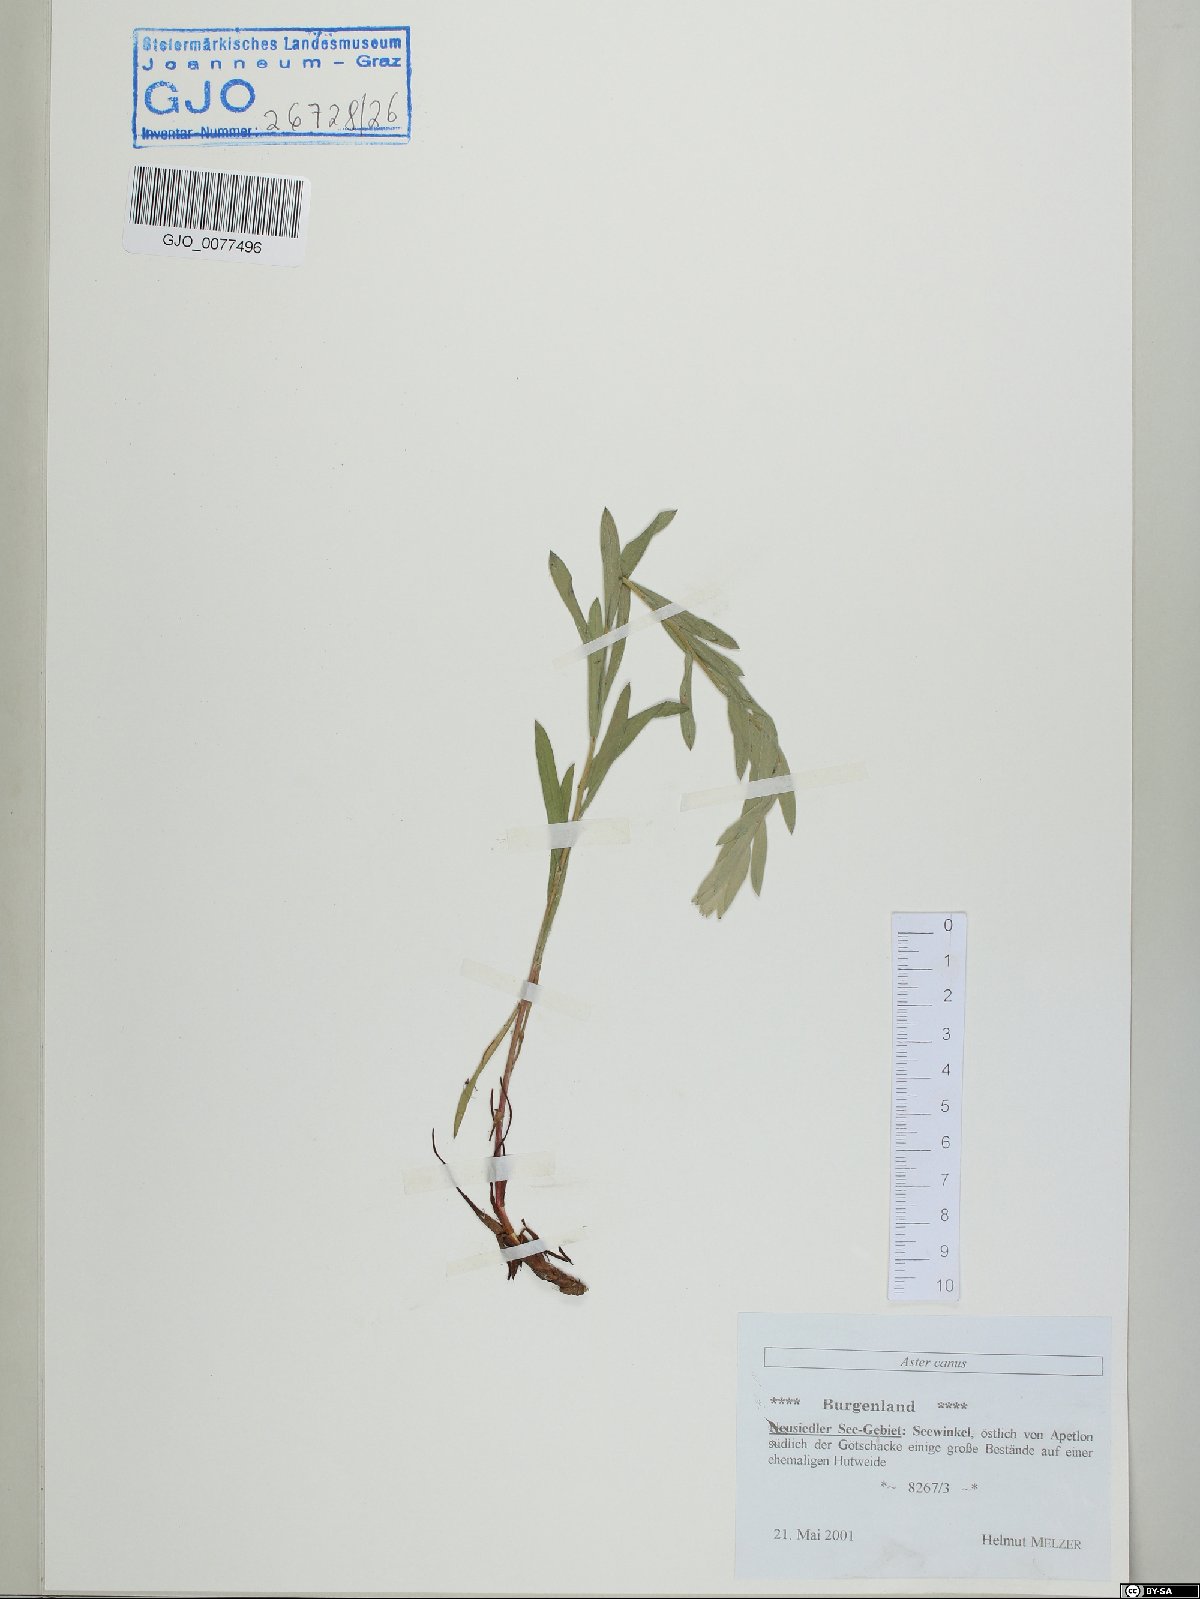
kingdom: Plantae
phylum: Tracheophyta
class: Magnoliopsida
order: Asterales
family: Asteraceae
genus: Galatella
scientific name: Galatella cana
